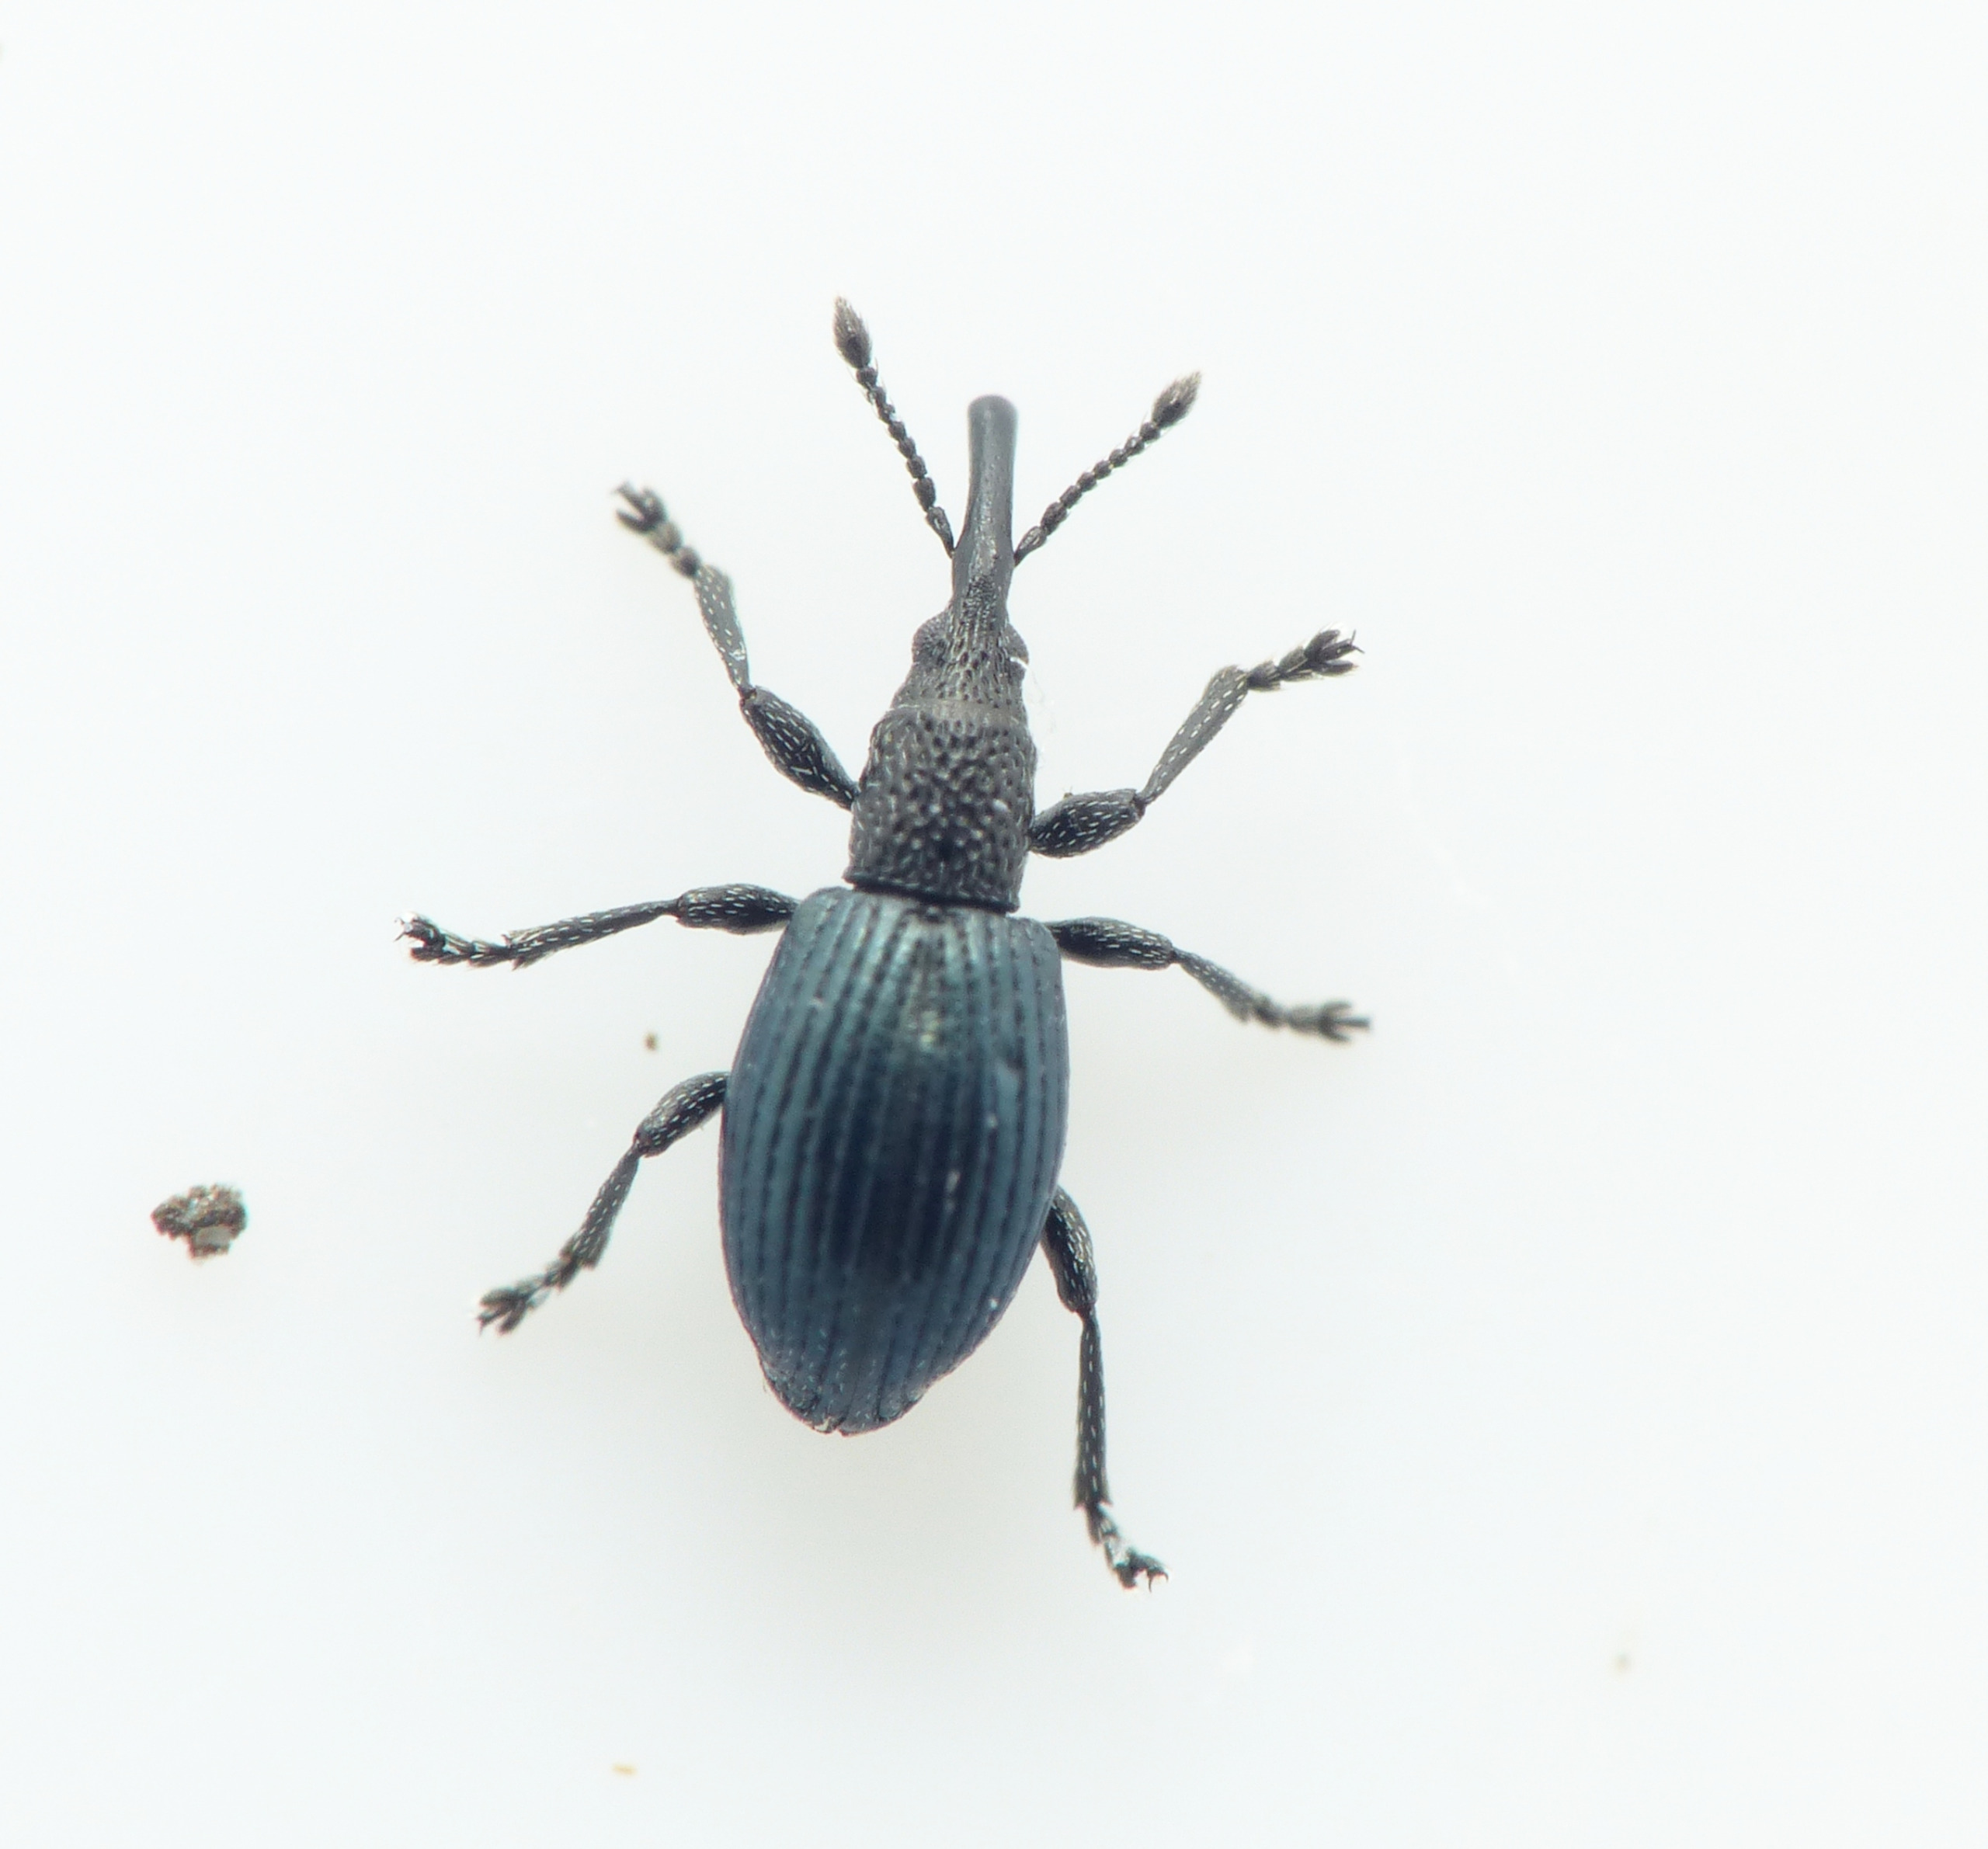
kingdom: Animalia
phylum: Arthropoda
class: Insecta
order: Coleoptera
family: Apionidae
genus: Ceratapion
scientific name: Ceratapion onopordi
